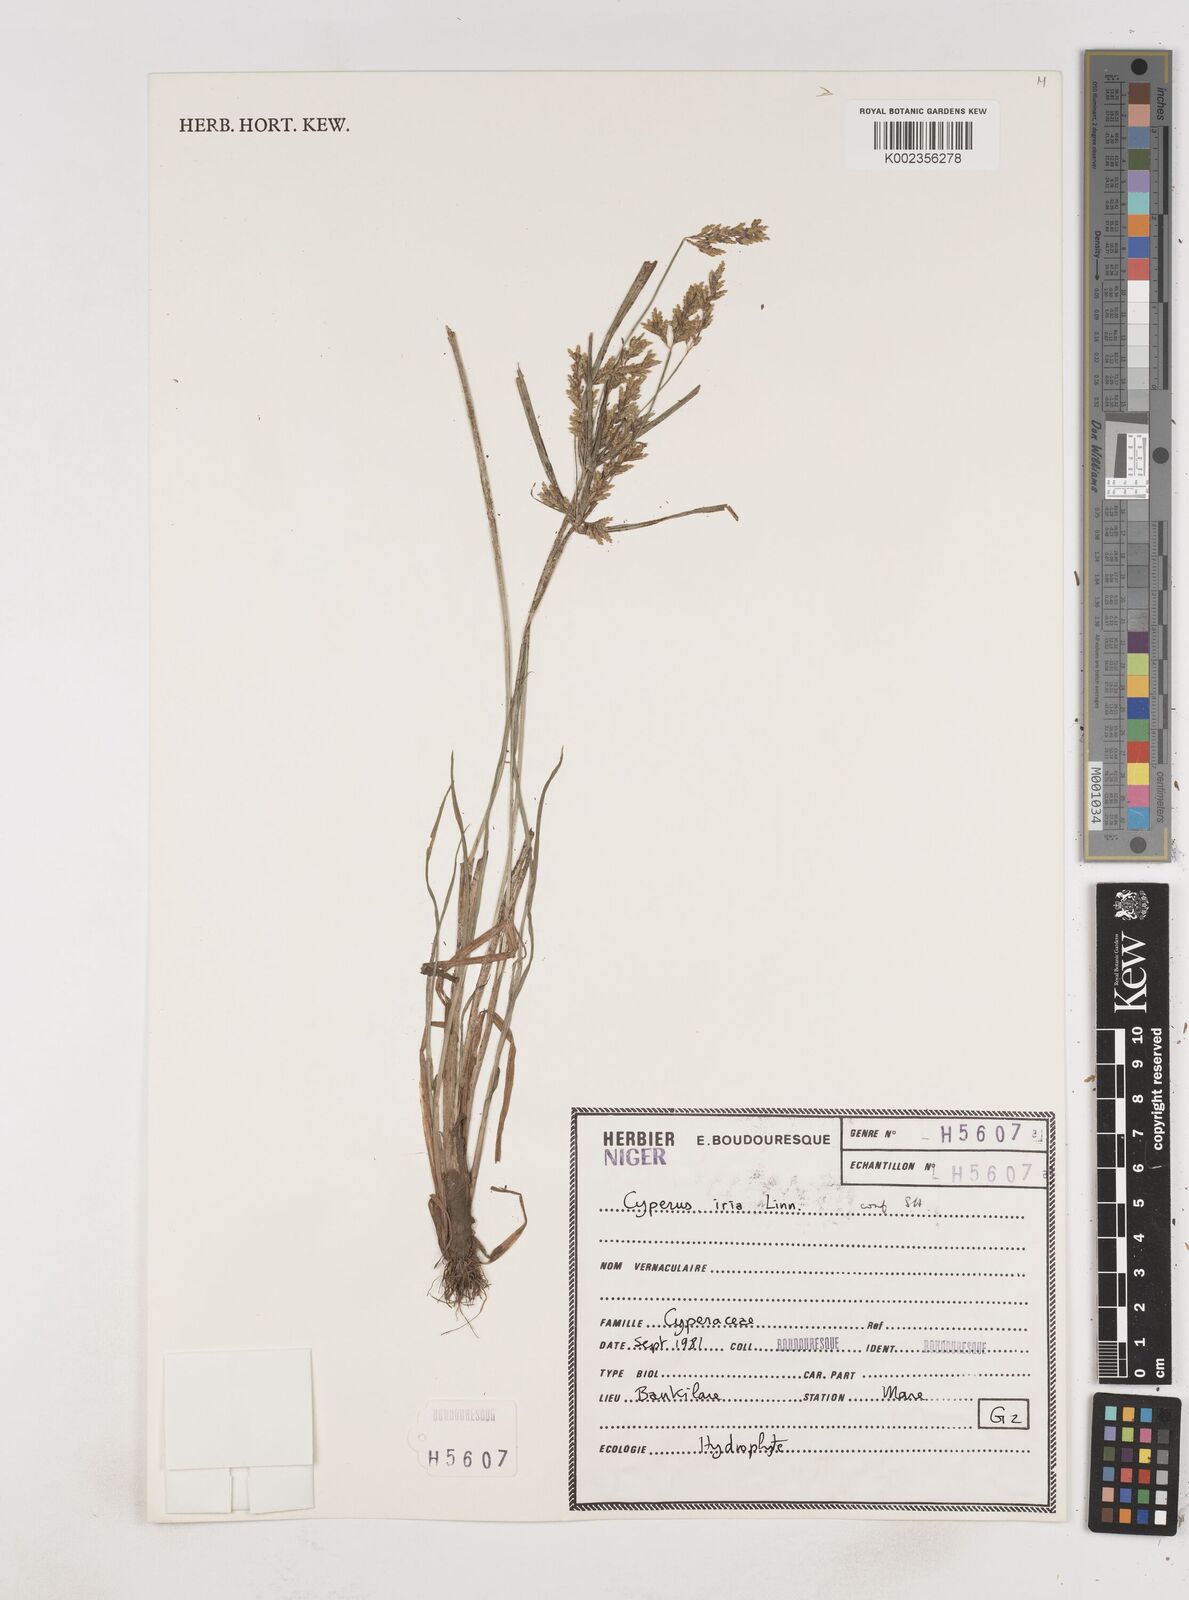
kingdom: Plantae
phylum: Tracheophyta
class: Liliopsida
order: Poales
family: Cyperaceae
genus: Cyperus
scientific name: Cyperus iria
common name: Ricefield flatsedge
